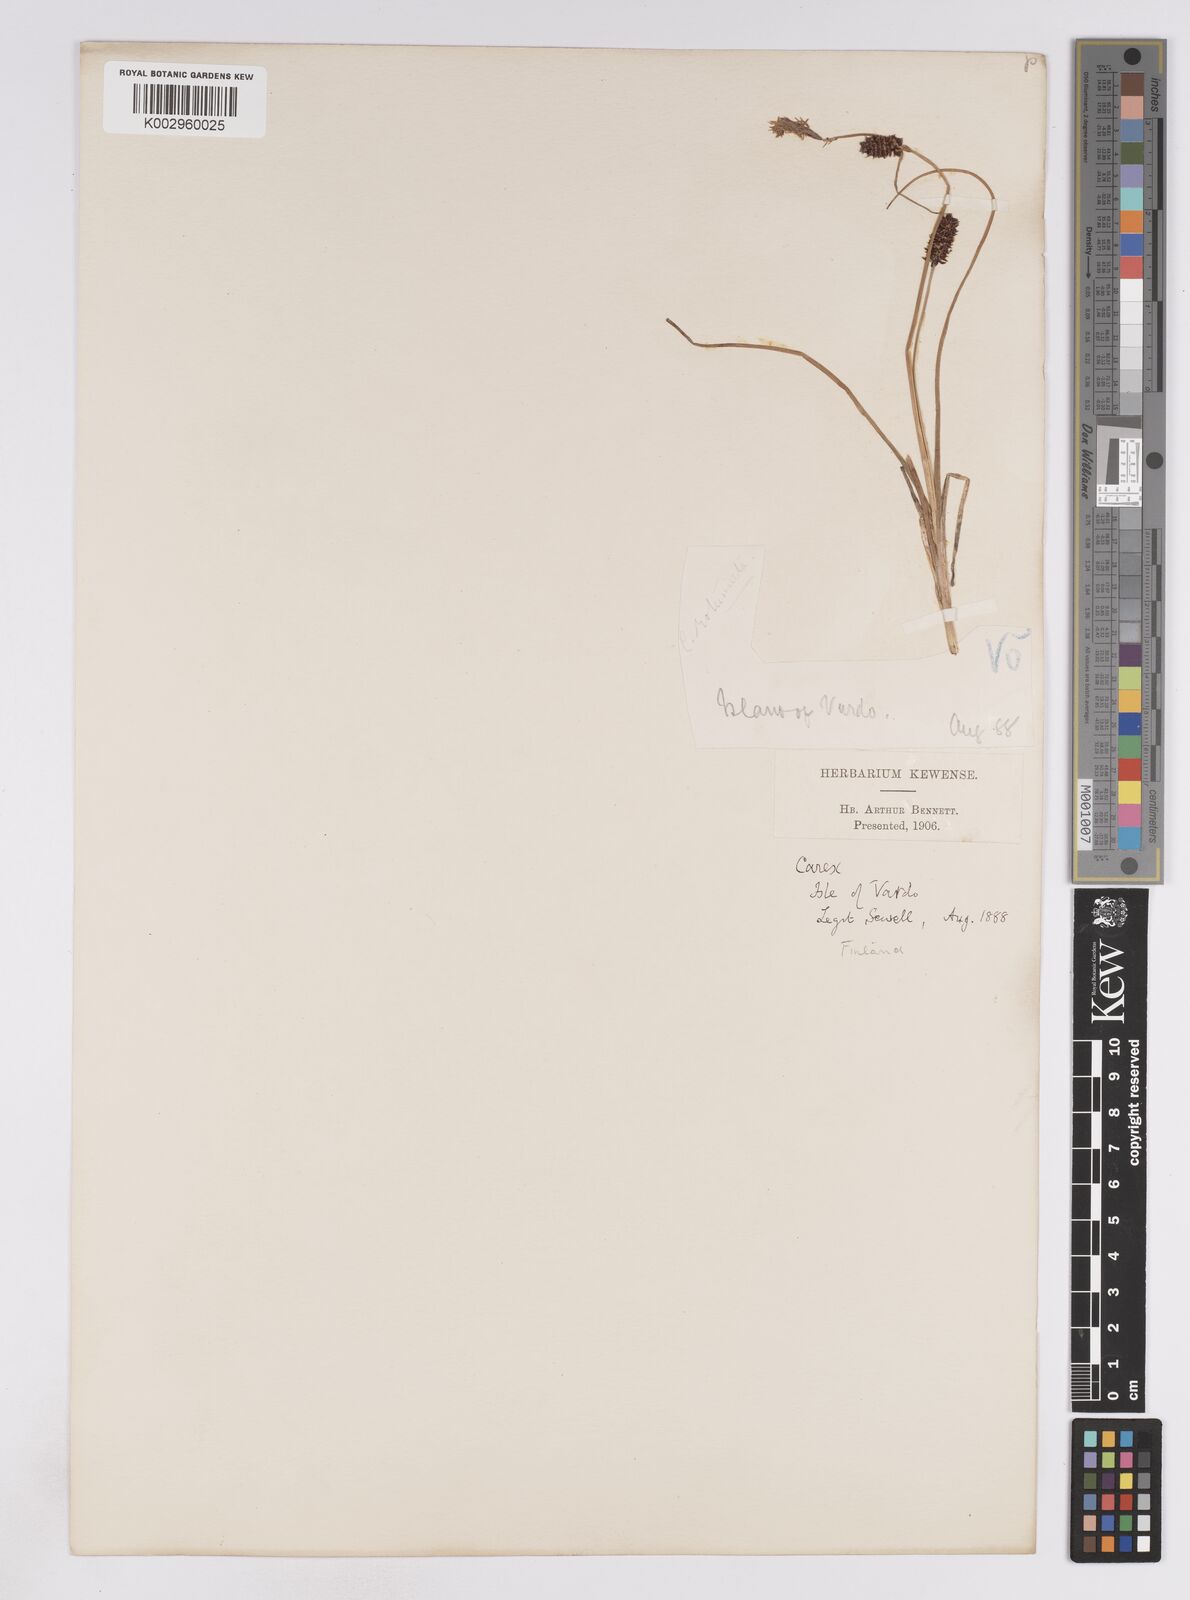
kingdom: Plantae
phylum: Tracheophyta
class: Liliopsida
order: Poales
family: Cyperaceae
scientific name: Cyperaceae
